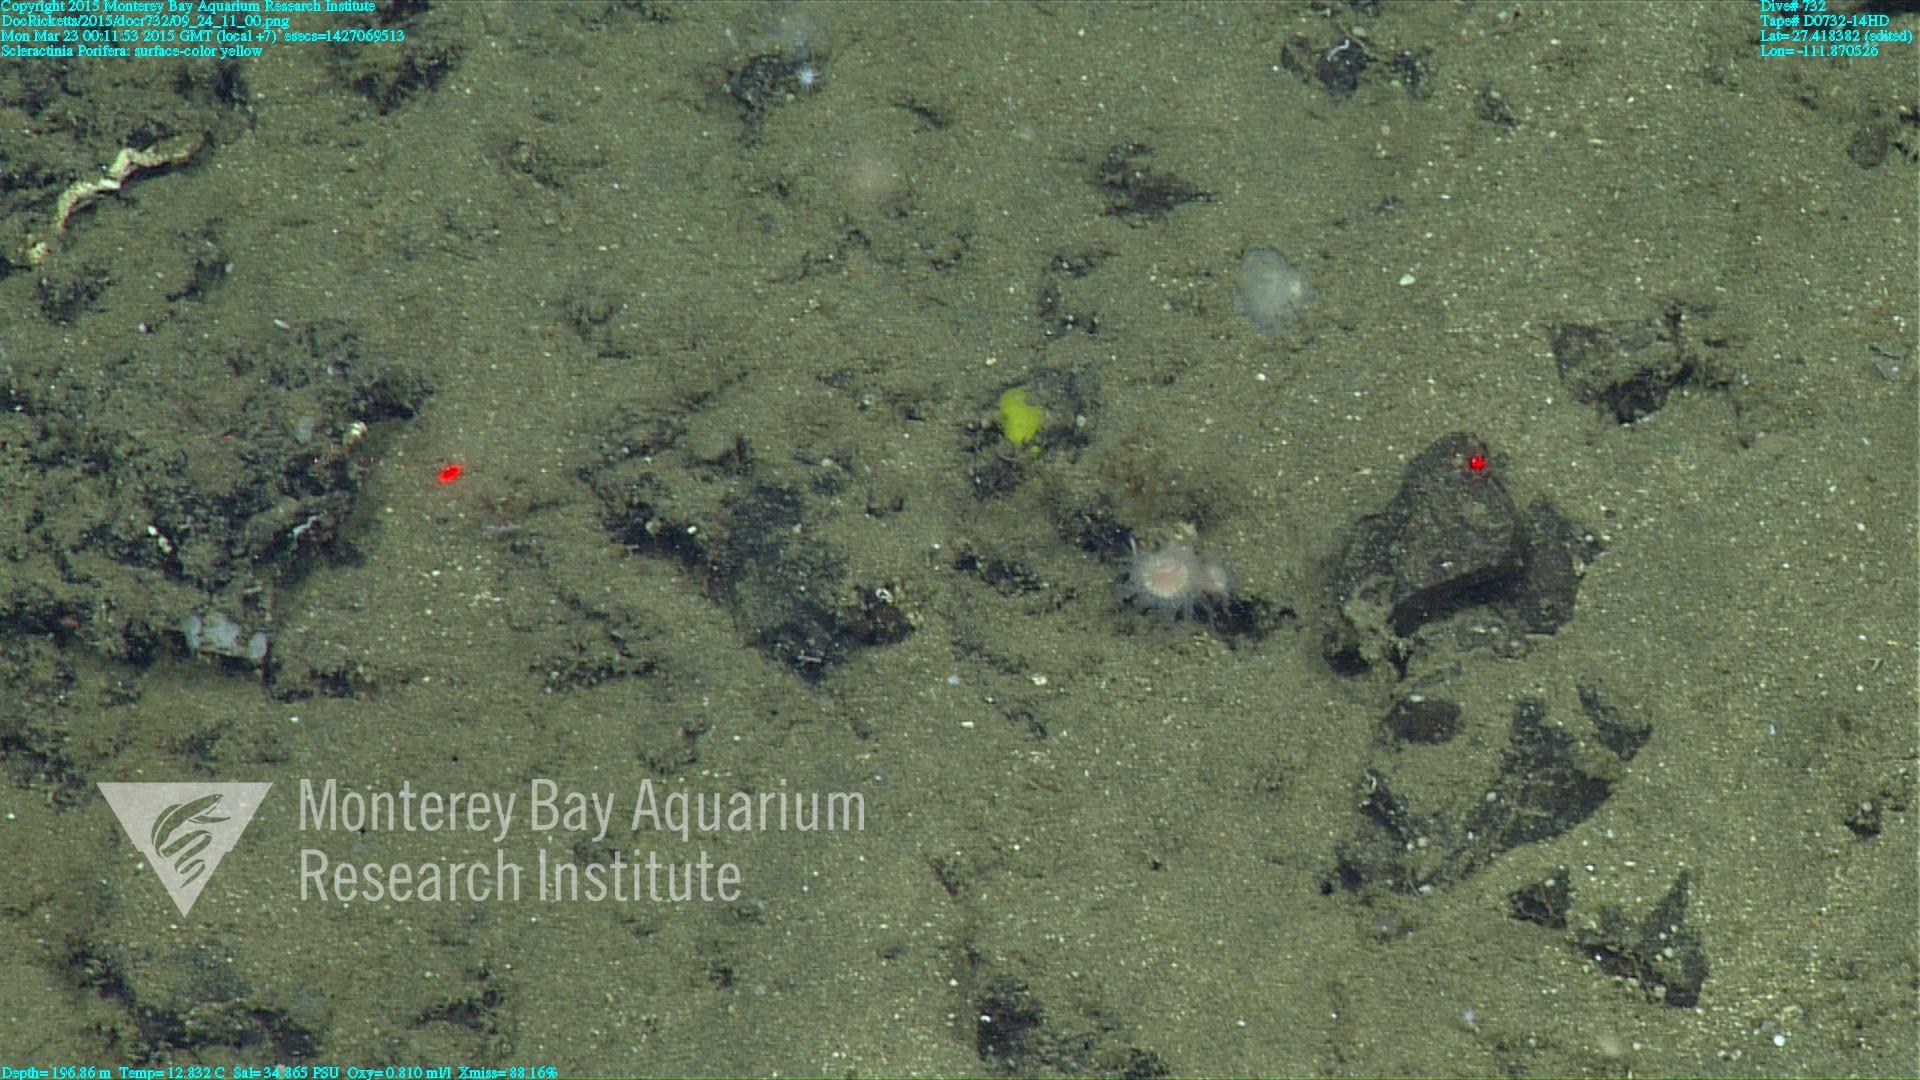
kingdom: Animalia
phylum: Cnidaria
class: Anthozoa
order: Scleractinia
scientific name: Scleractinia
